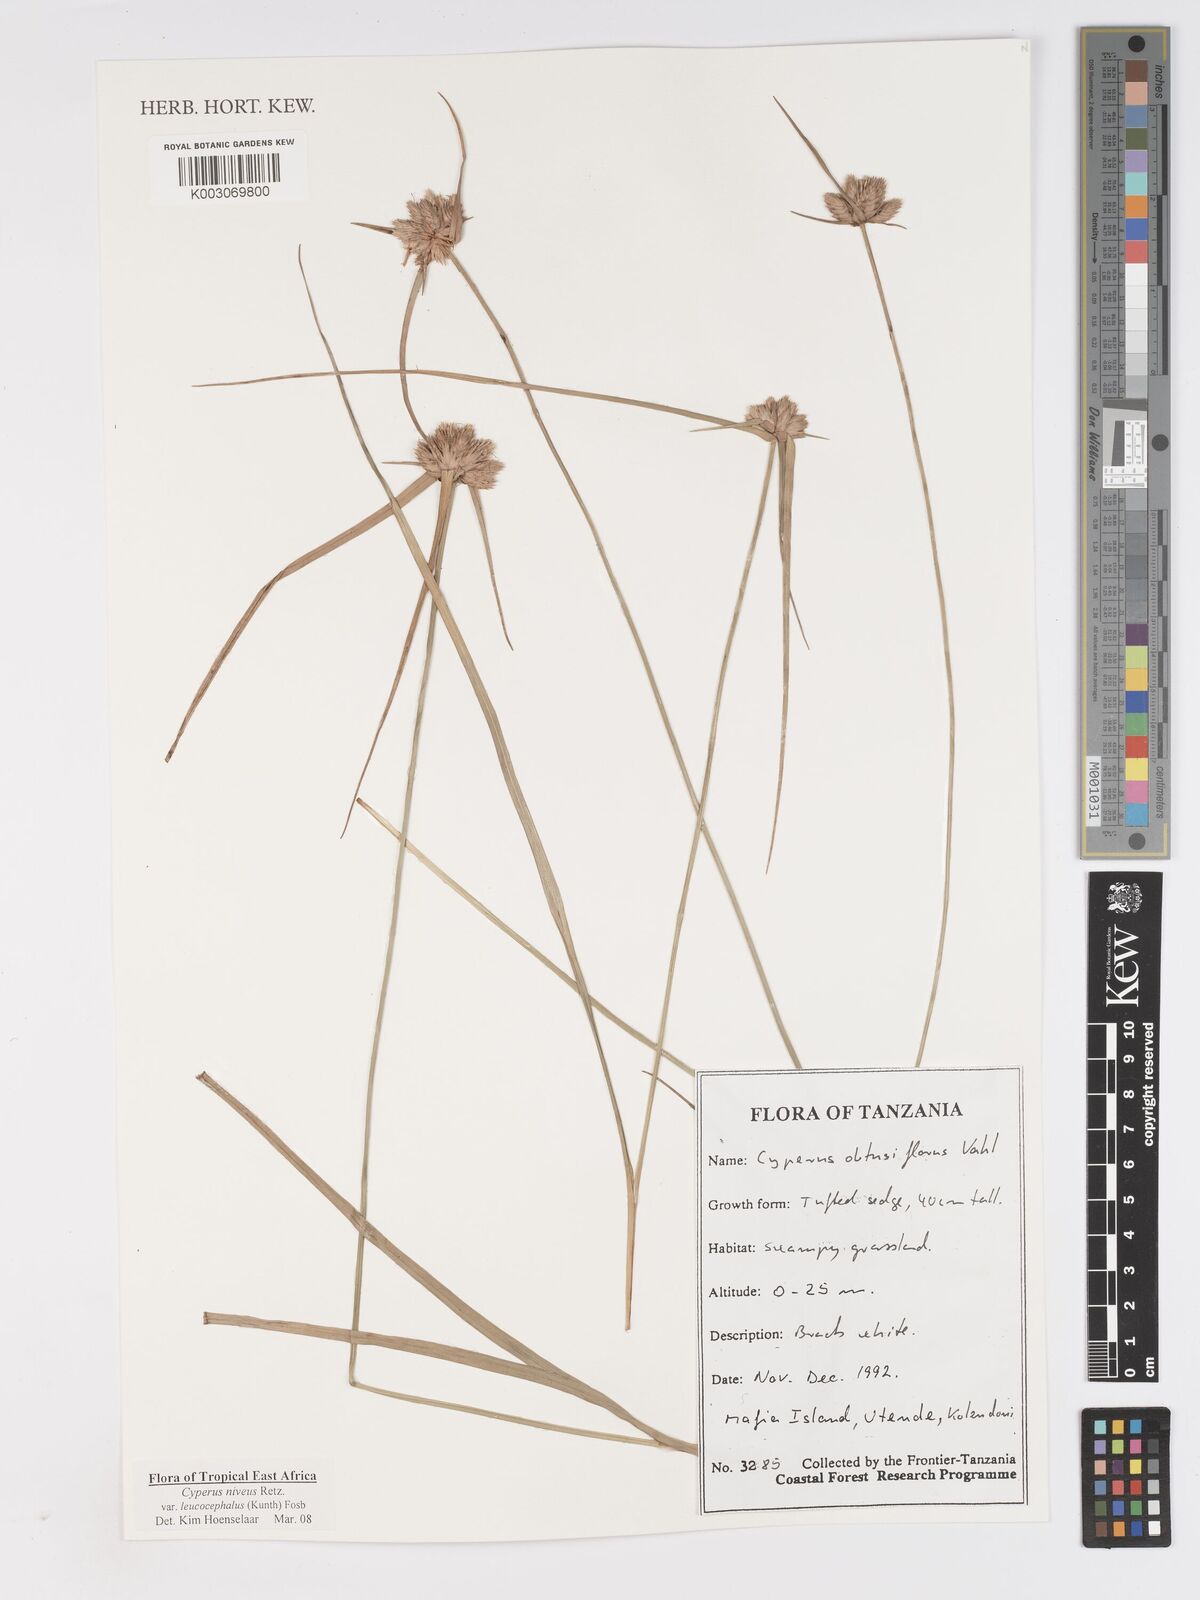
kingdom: Plantae
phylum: Tracheophyta
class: Liliopsida
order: Poales
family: Cyperaceae
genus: Cyperus
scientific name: Cyperus niveus
